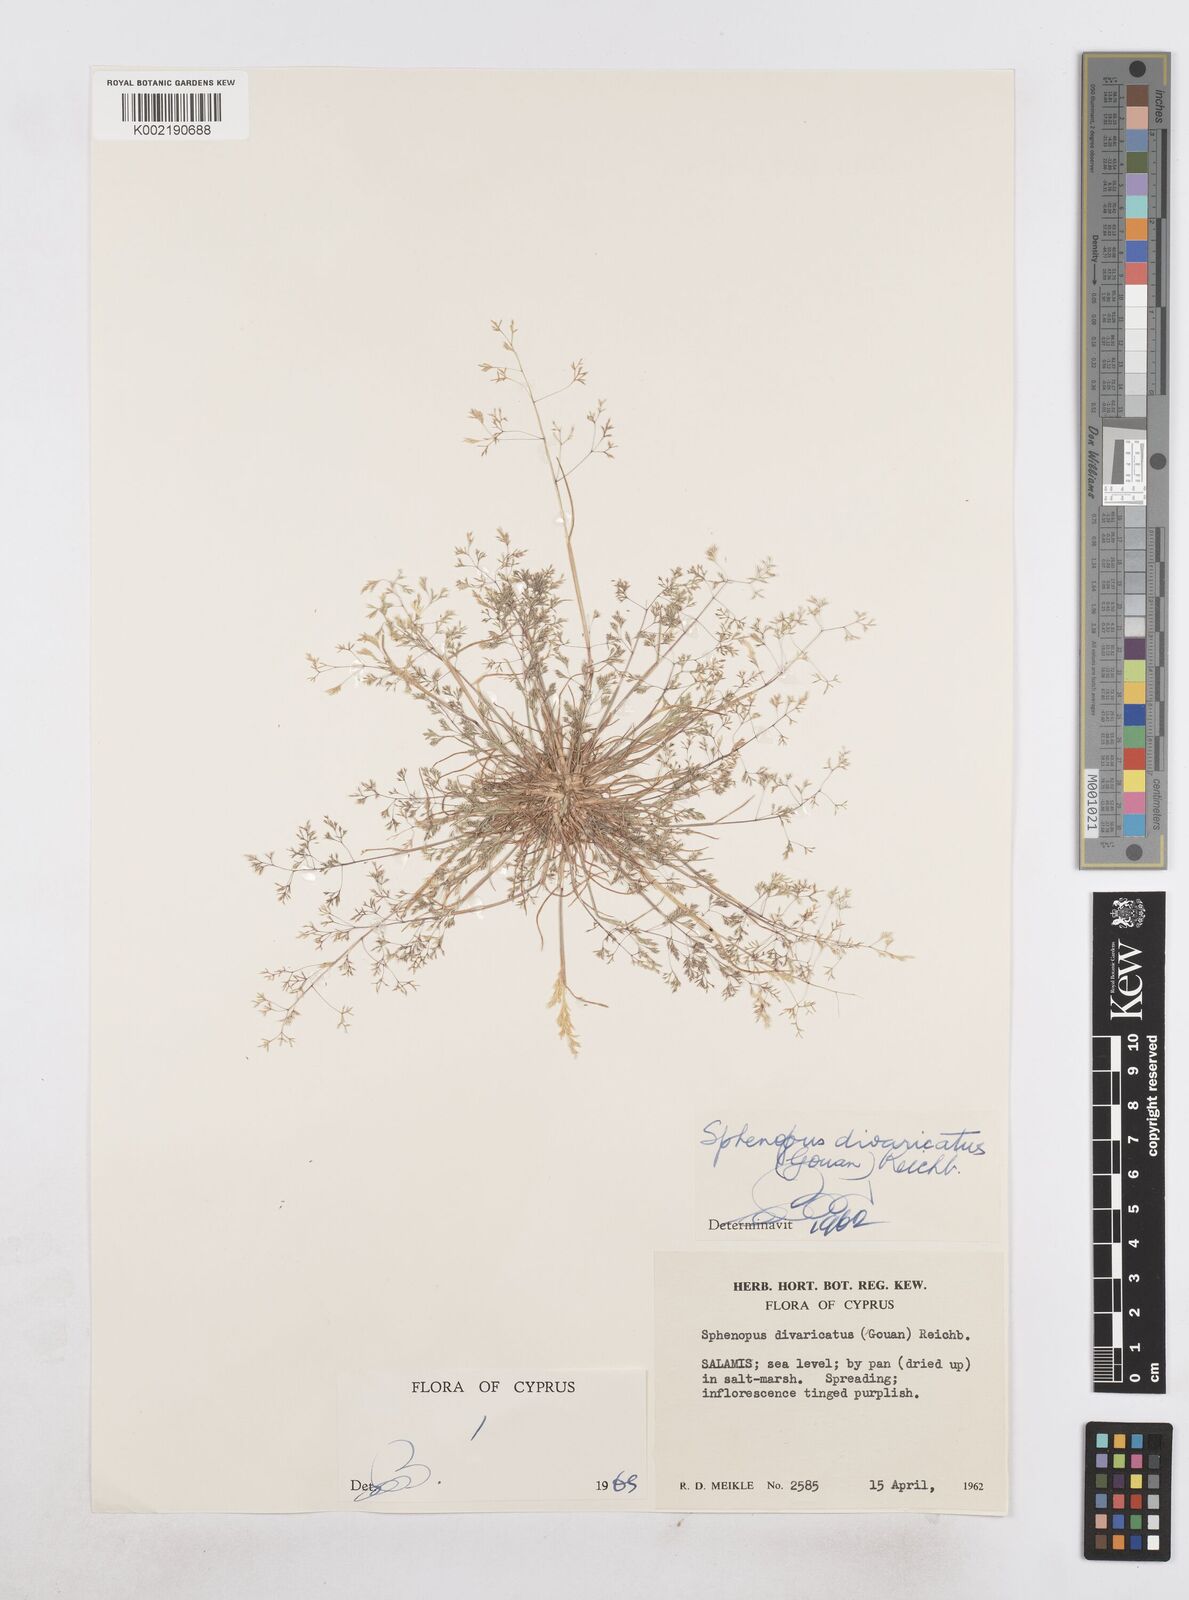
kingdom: Plantae
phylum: Tracheophyta
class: Liliopsida
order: Poales
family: Poaceae
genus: Sphenopus
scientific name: Sphenopus divaricatus
